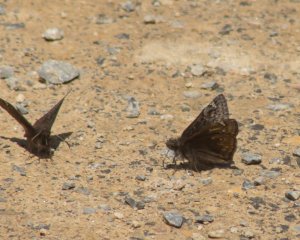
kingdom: Animalia
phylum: Arthropoda
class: Insecta
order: Lepidoptera
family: Hesperiidae
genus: Gesta
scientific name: Gesta
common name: Juvenal's Duskywing
